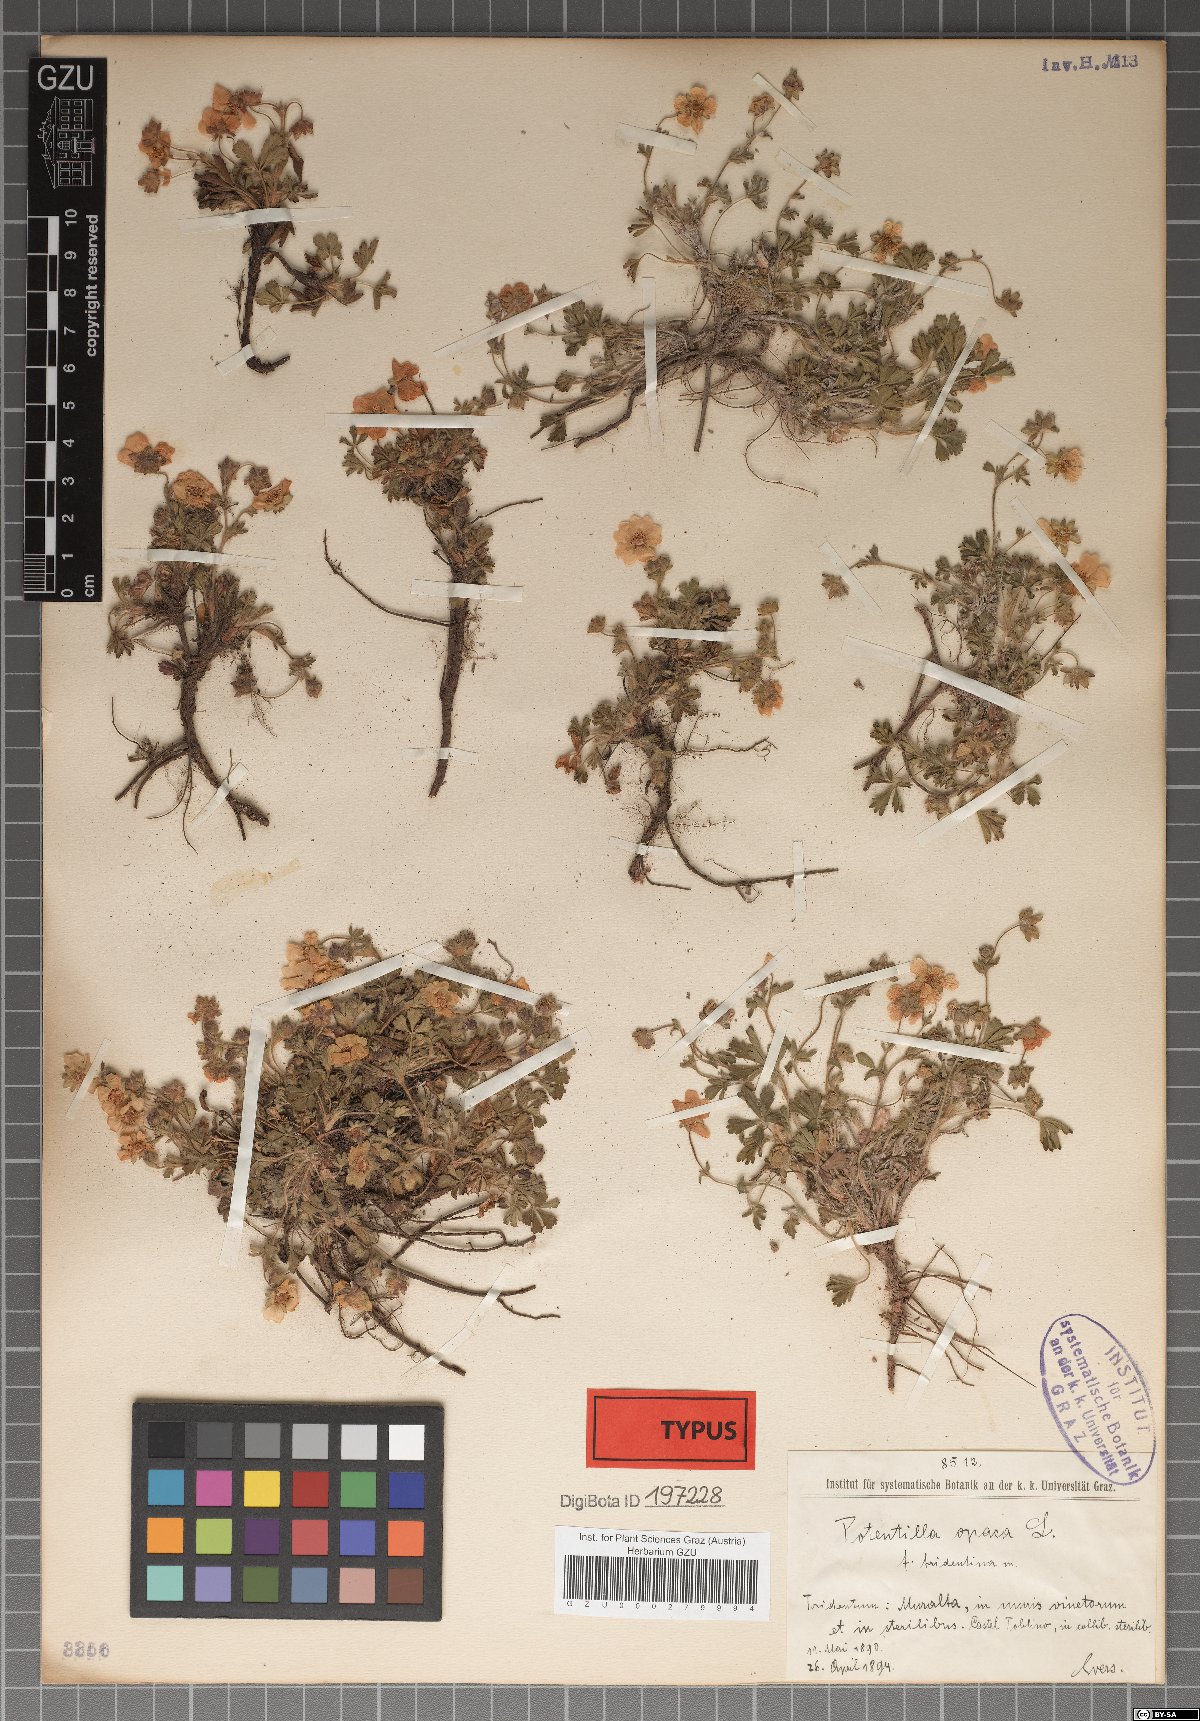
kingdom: Plantae
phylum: Tracheophyta
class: Magnoliopsida
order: Rosales
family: Rosaceae
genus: Potentilla
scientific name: Potentilla
